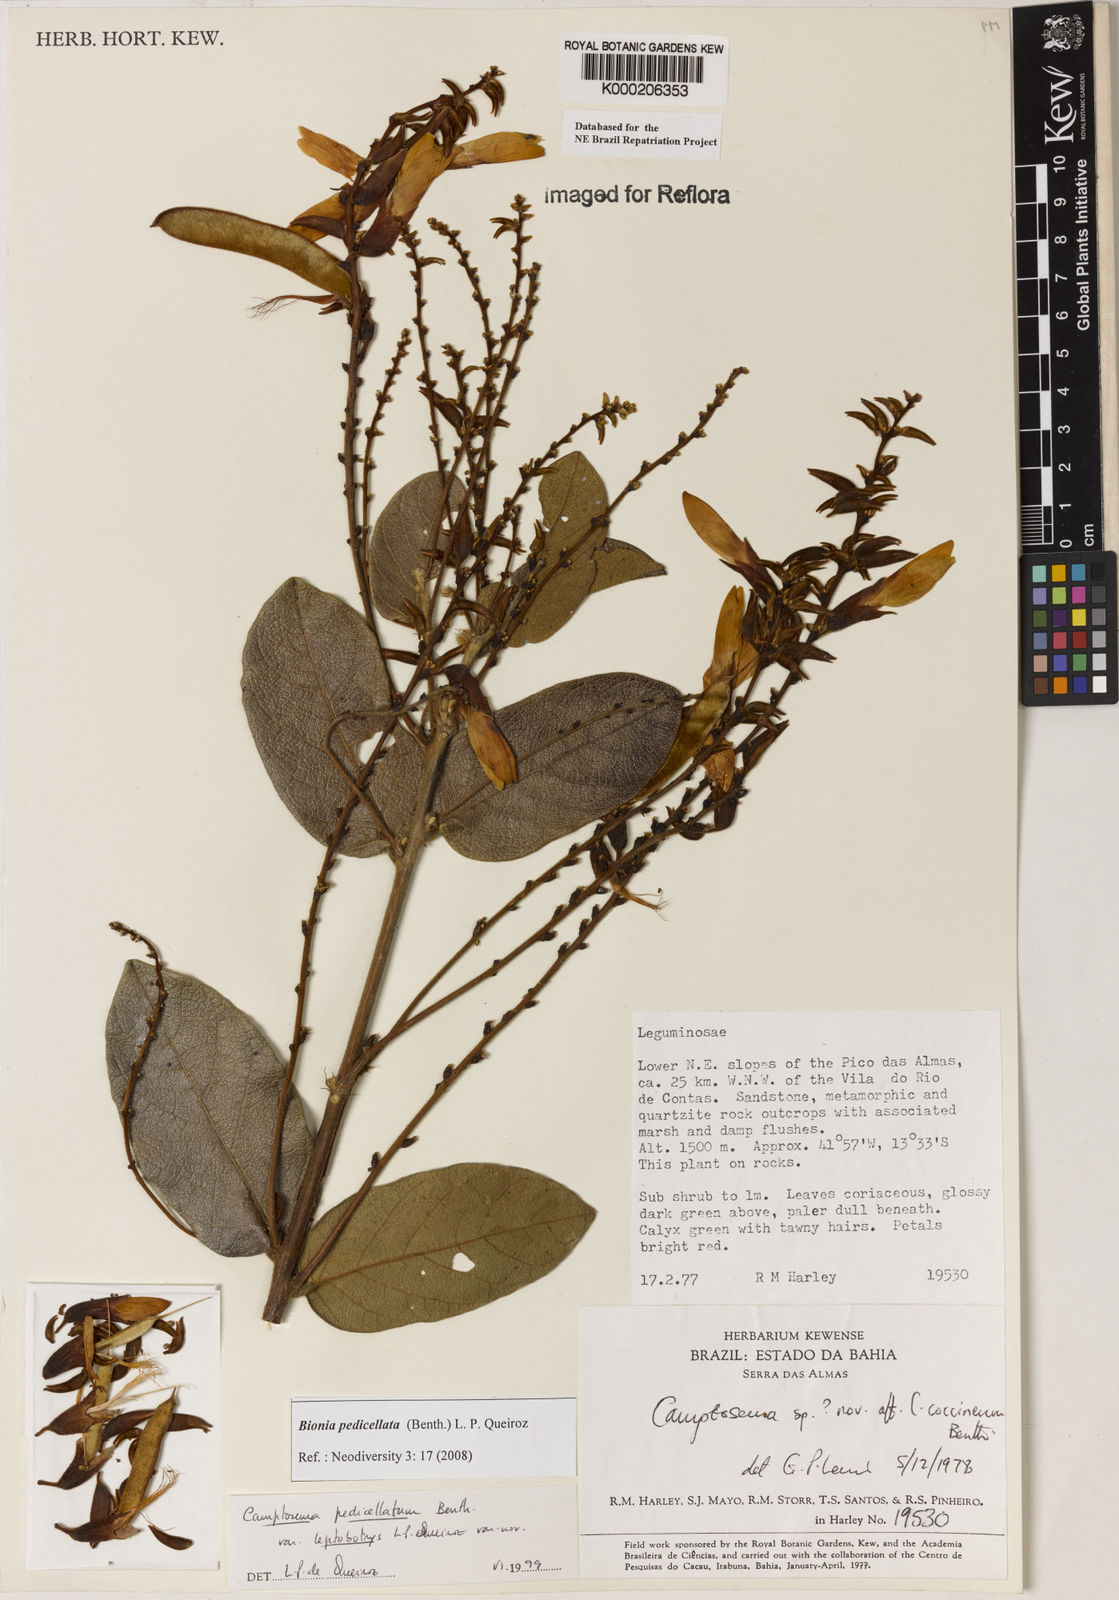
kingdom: Plantae
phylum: Tracheophyta
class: Magnoliopsida
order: Fabales
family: Fabaceae
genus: Camptosema
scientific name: Camptosema pedicellatum
